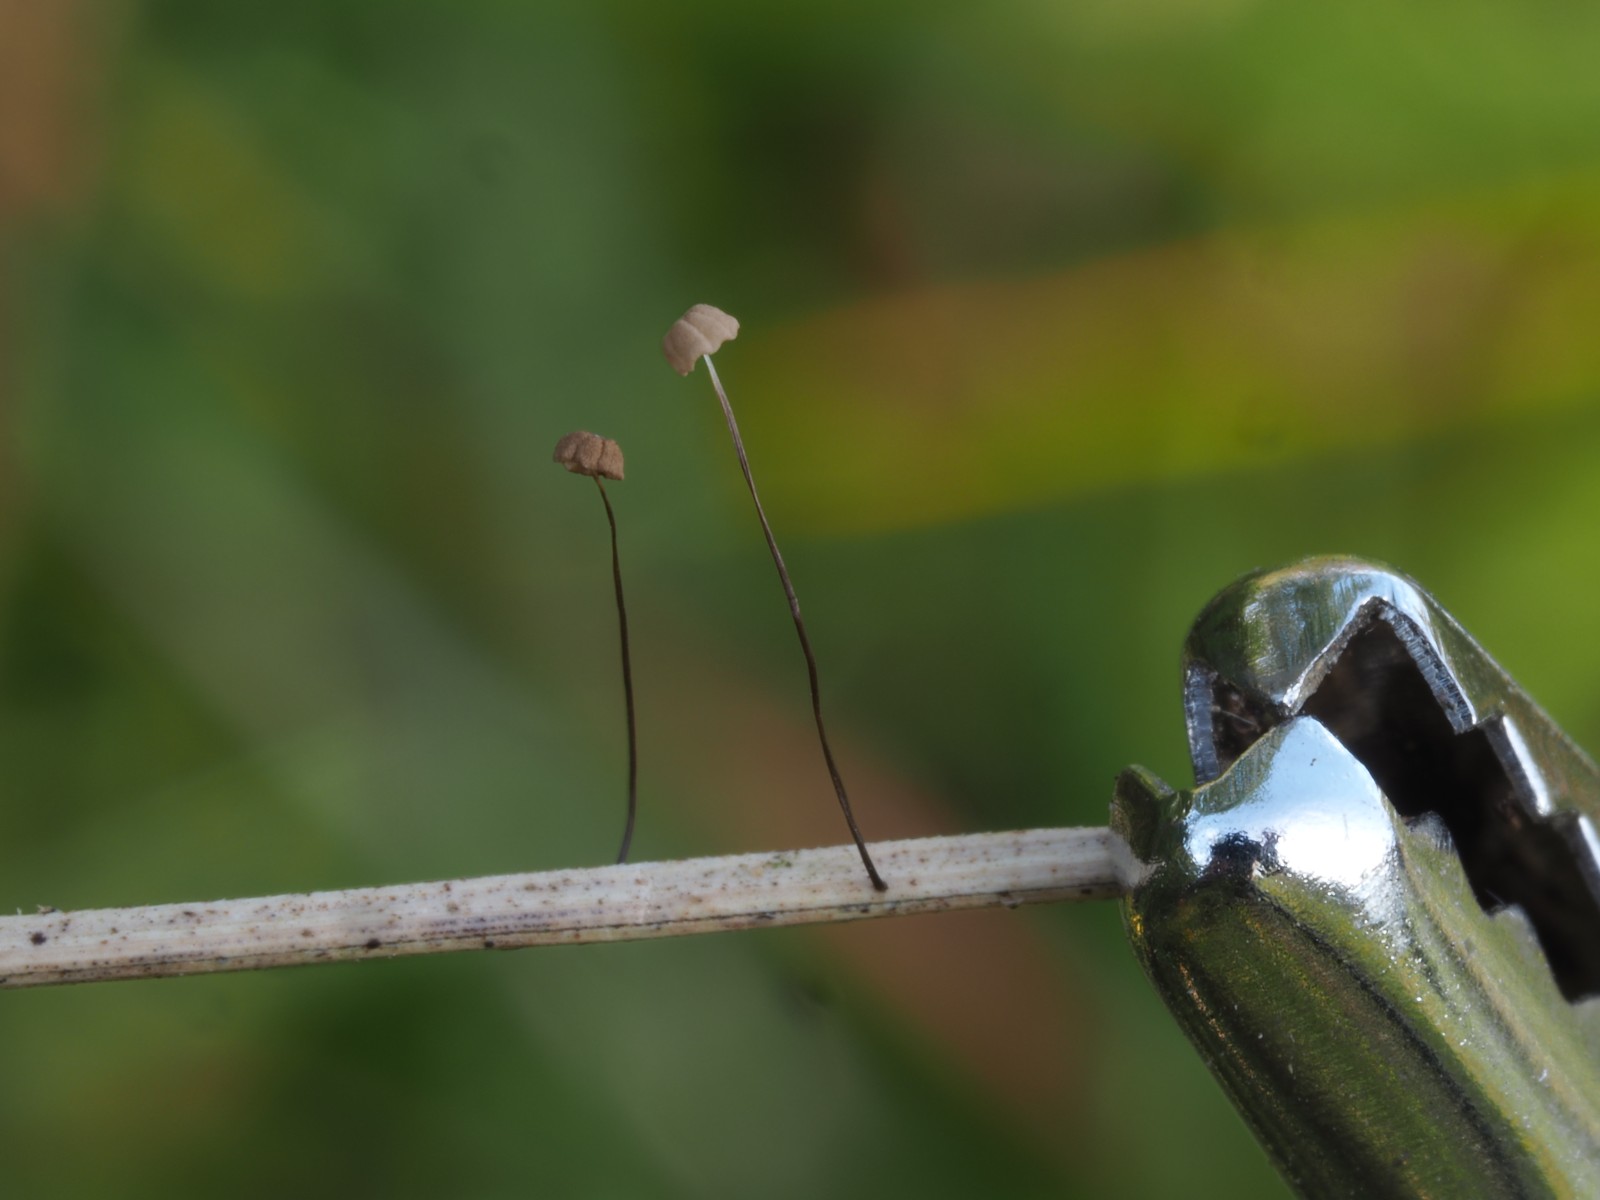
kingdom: Fungi
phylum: Basidiomycota
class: Agaricomycetes
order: Agaricales
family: Marasmiaceae
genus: Marasmius
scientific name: Marasmius limosus
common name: kær-bruskhat
